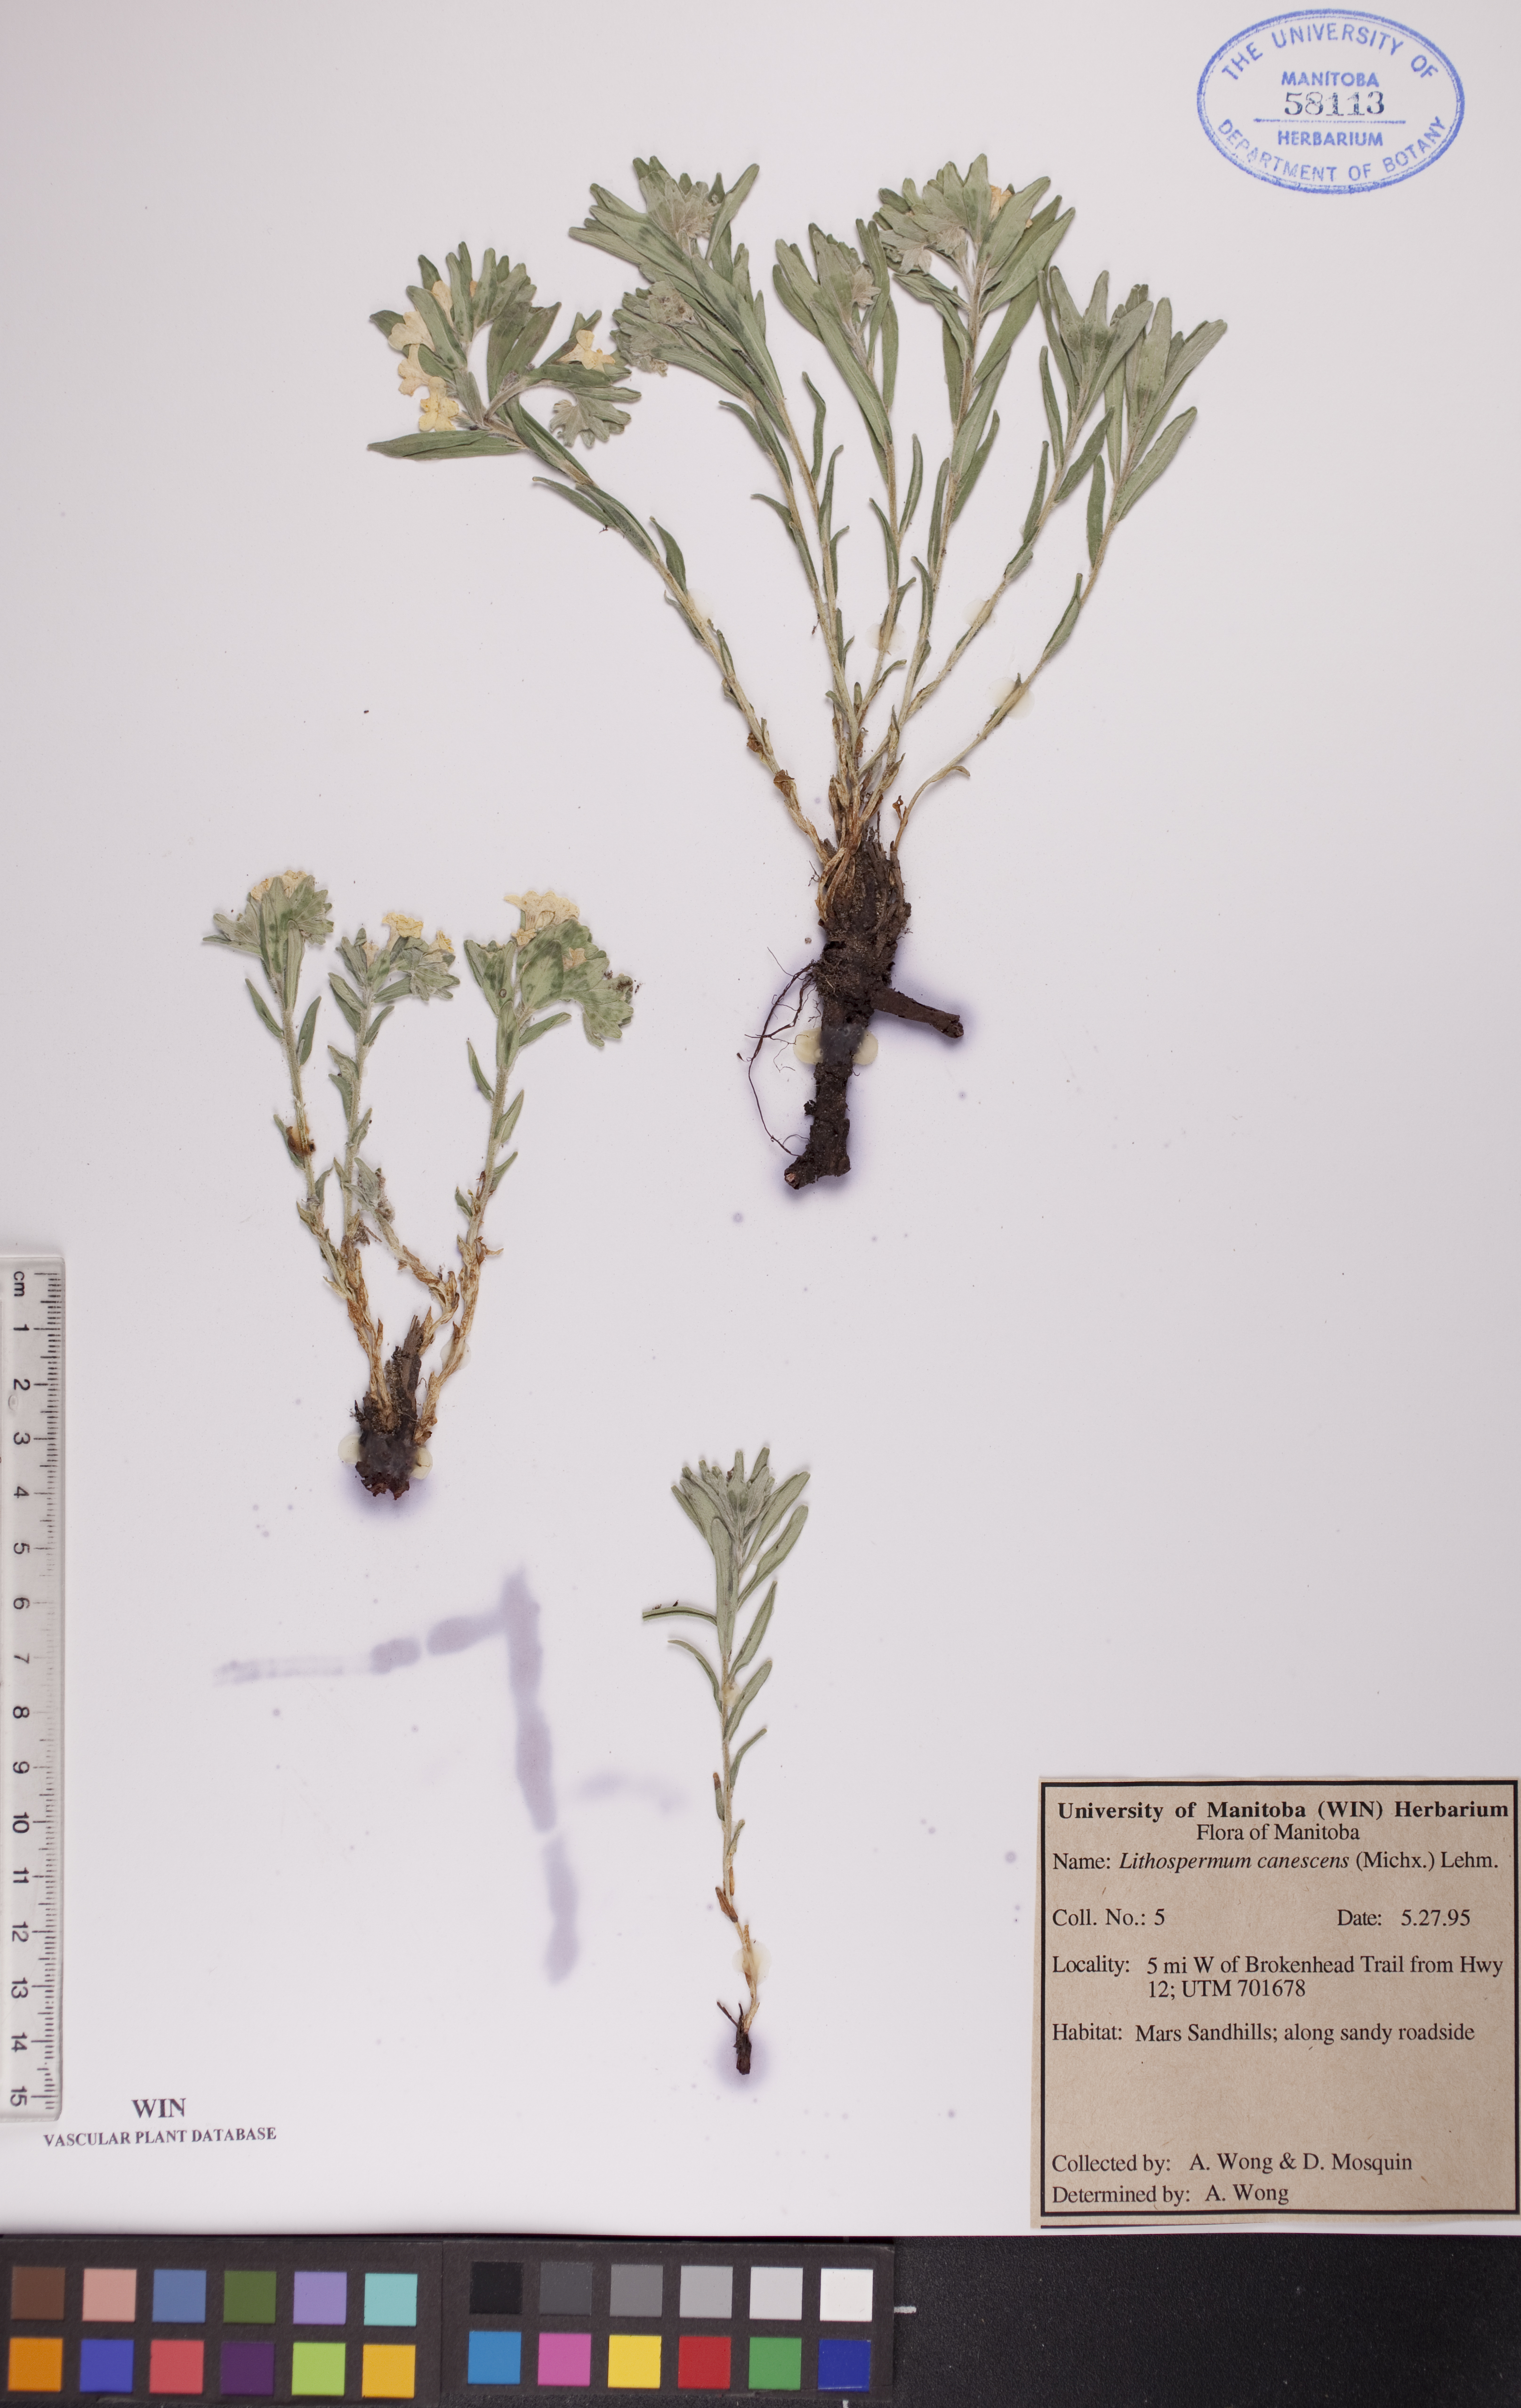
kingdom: Plantae
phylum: Tracheophyta
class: Magnoliopsida
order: Boraginales
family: Boraginaceae
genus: Lithospermum
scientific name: Lithospermum canescens
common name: Hoary puccoon
